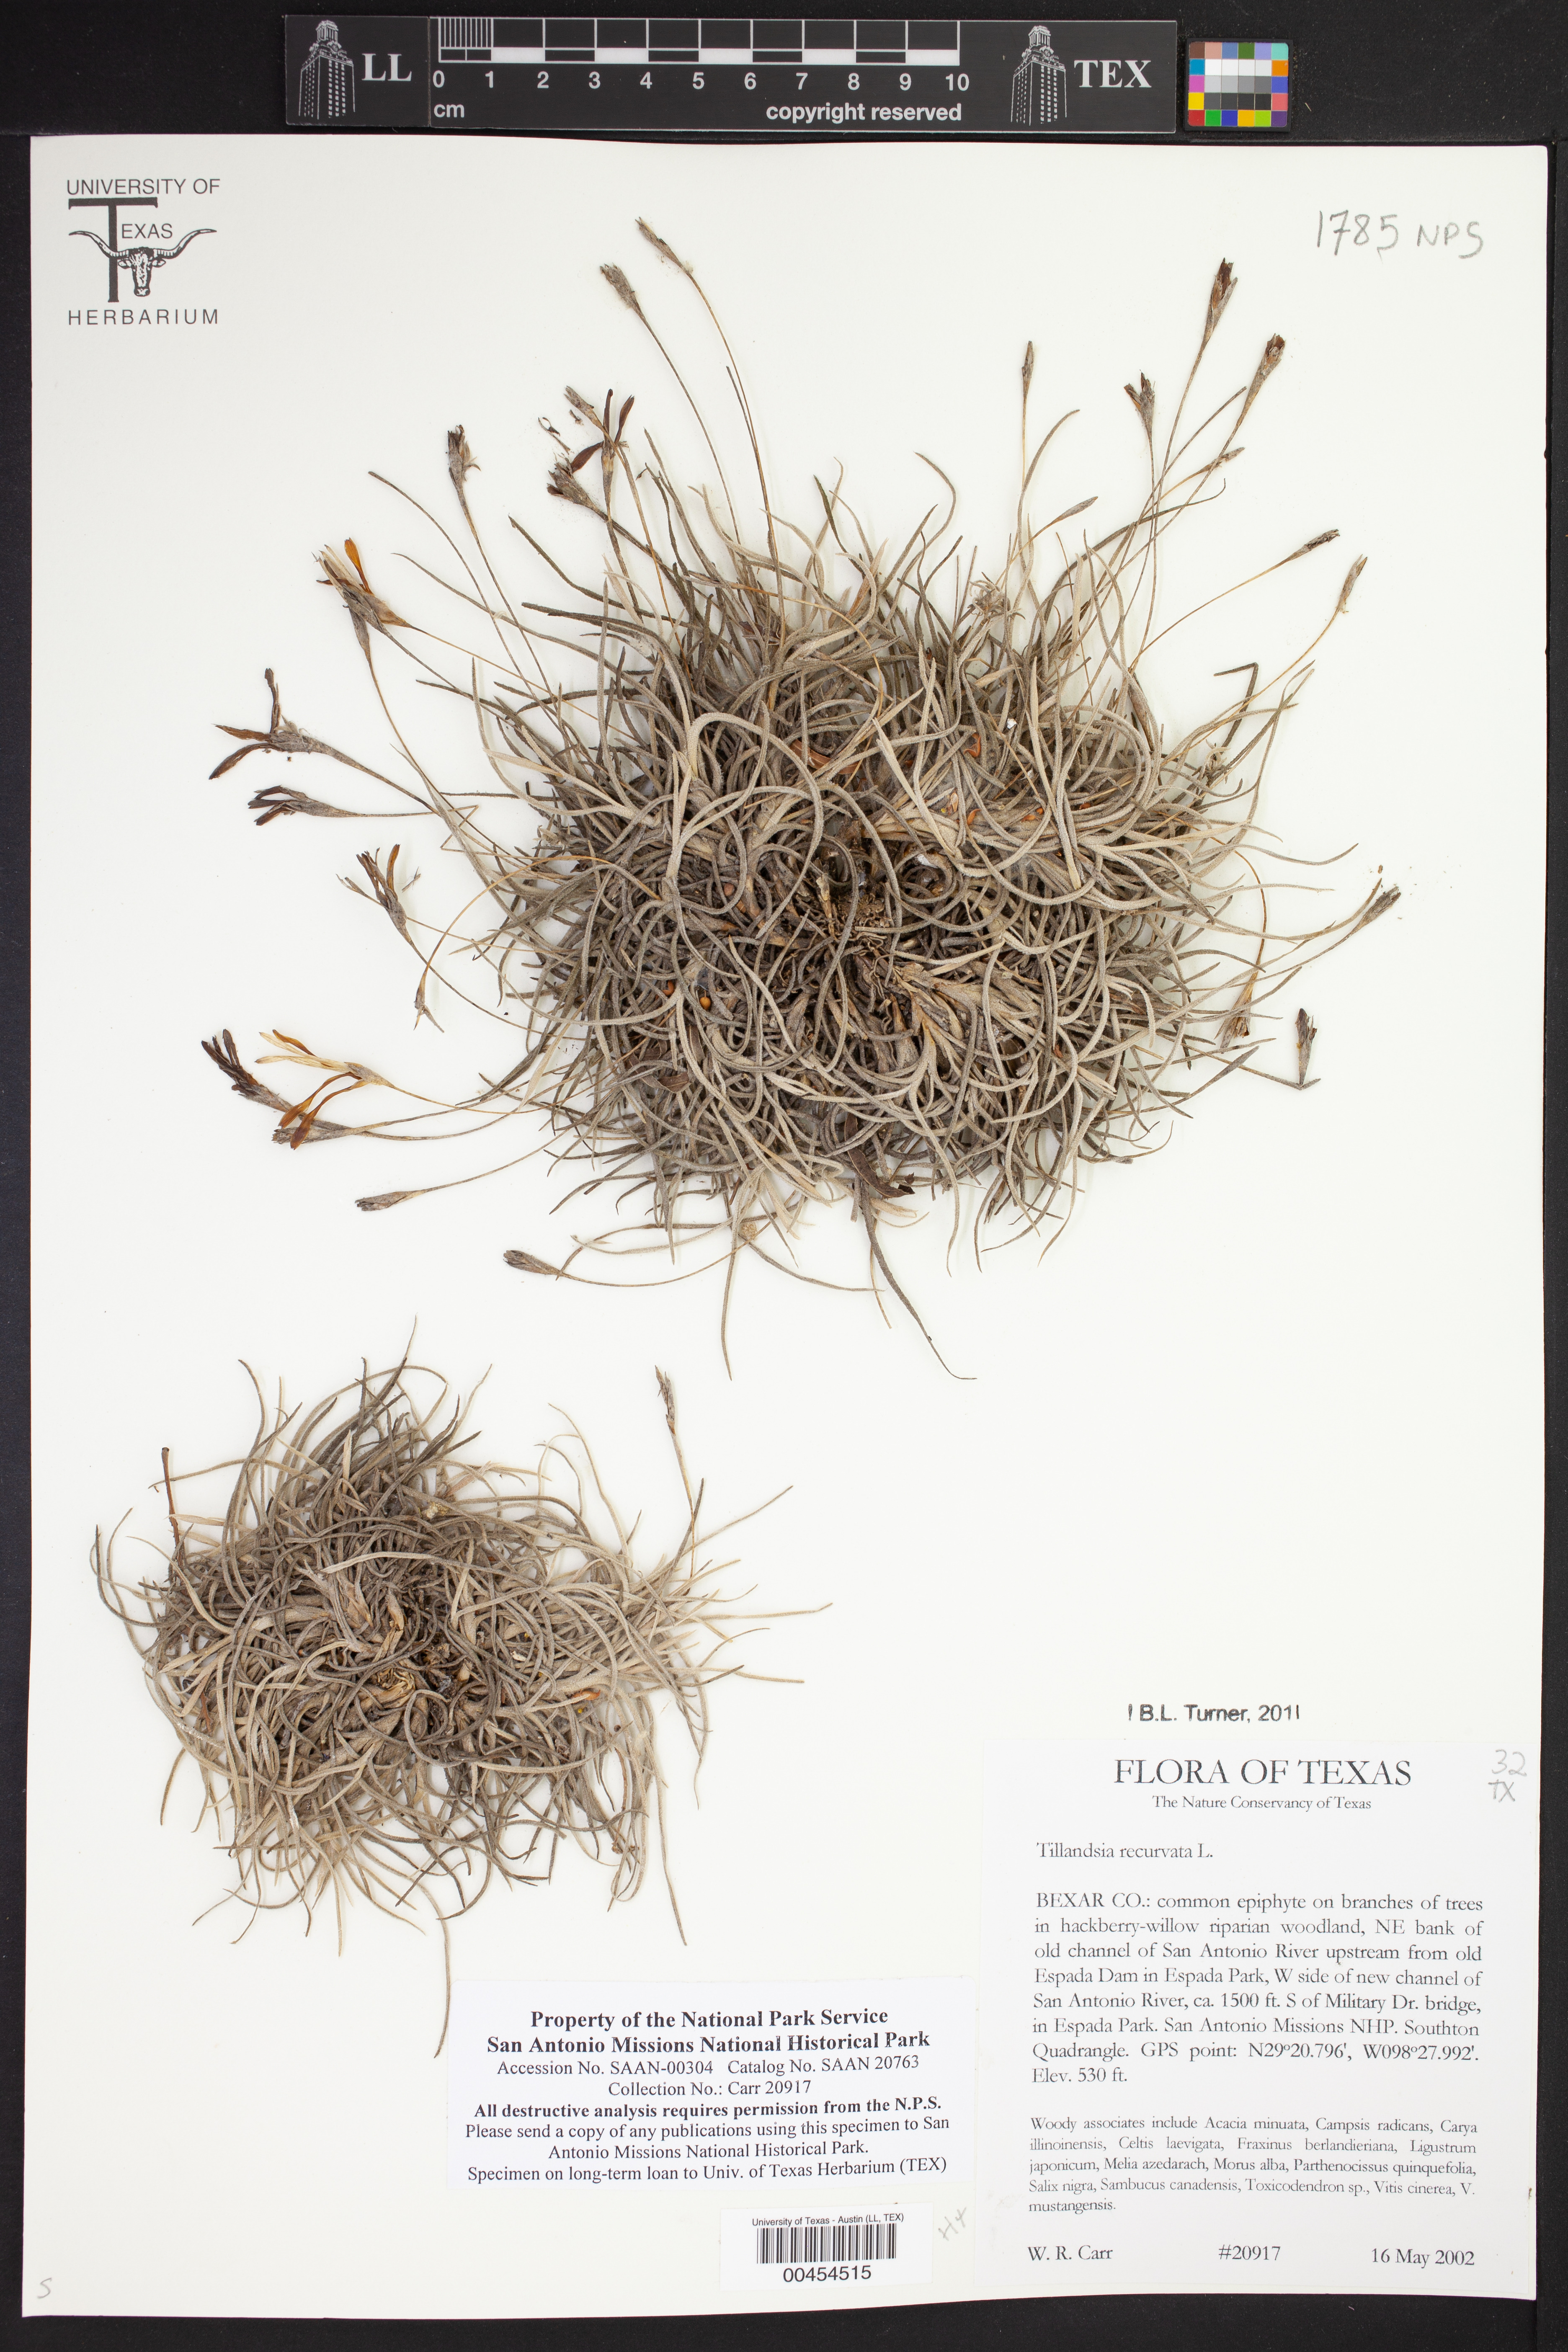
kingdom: Plantae
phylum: Tracheophyta
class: Liliopsida
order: Poales
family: Bromeliaceae
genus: Tillandsia
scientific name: Tillandsia recurvata
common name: Small ballmoss
